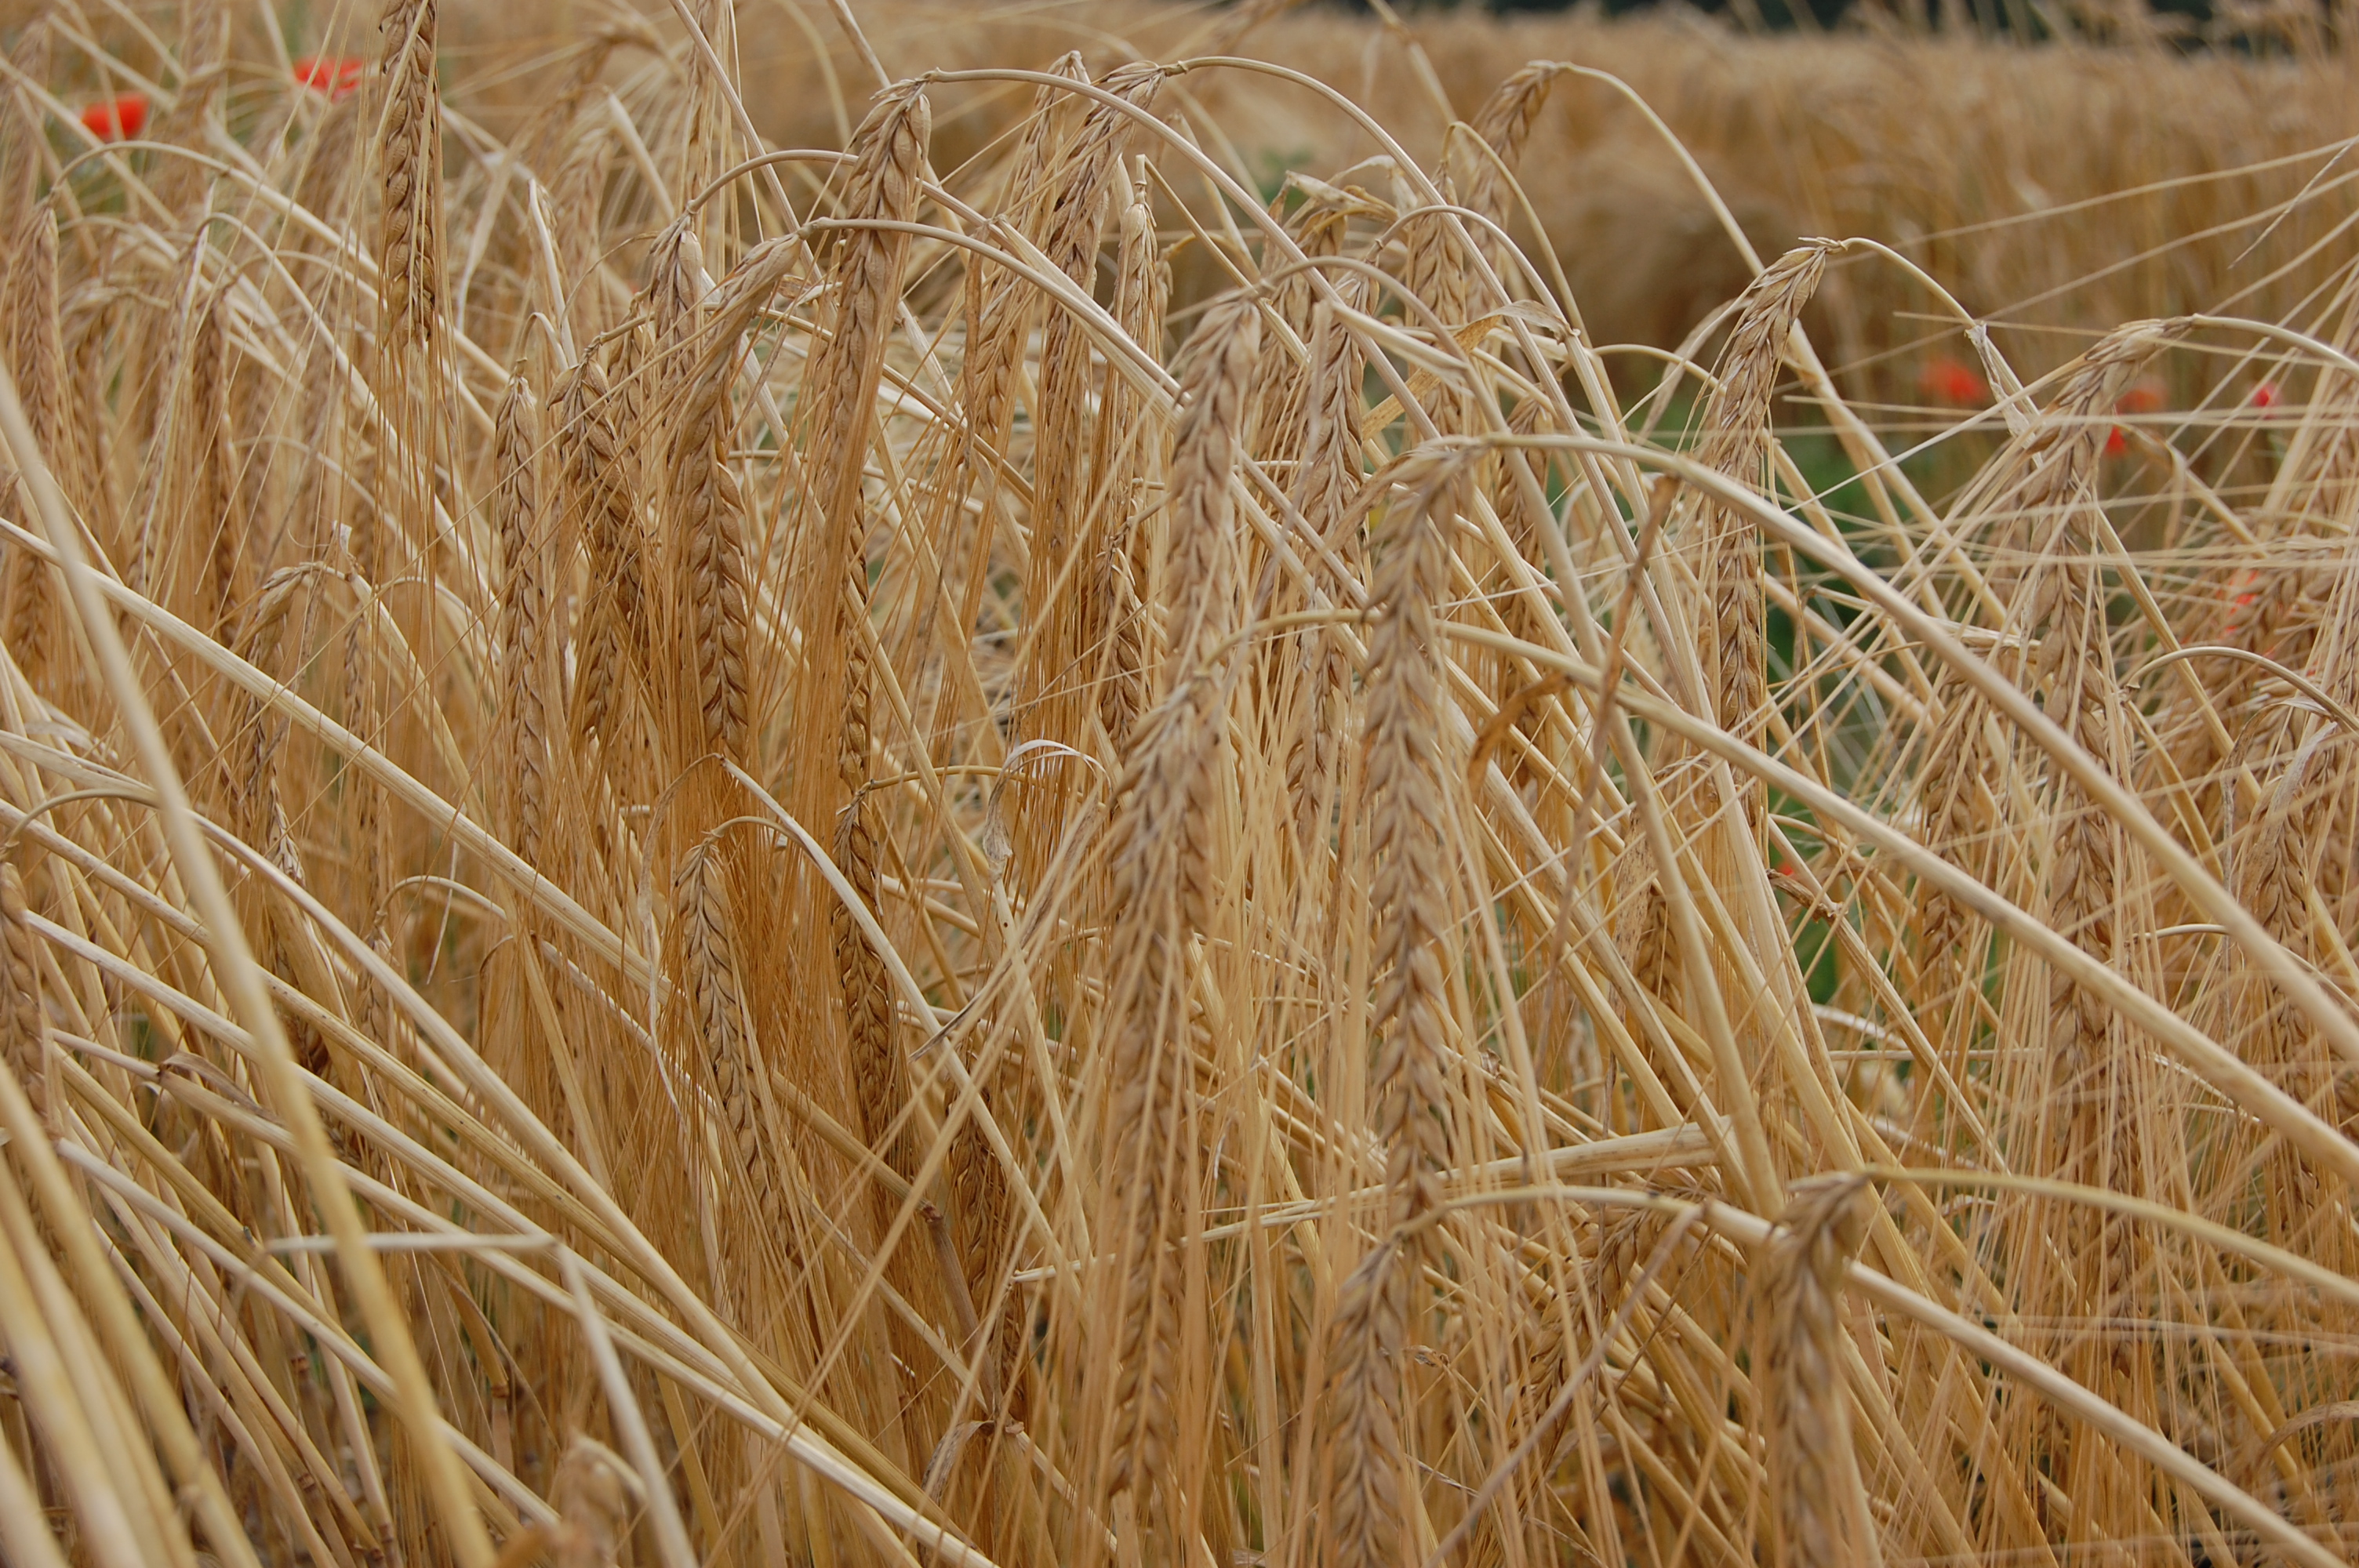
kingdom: Plantae
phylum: Tracheophyta
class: Liliopsida
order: Poales
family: Poaceae
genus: Hordeum
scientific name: Hordeum vulgare
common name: Common barley
